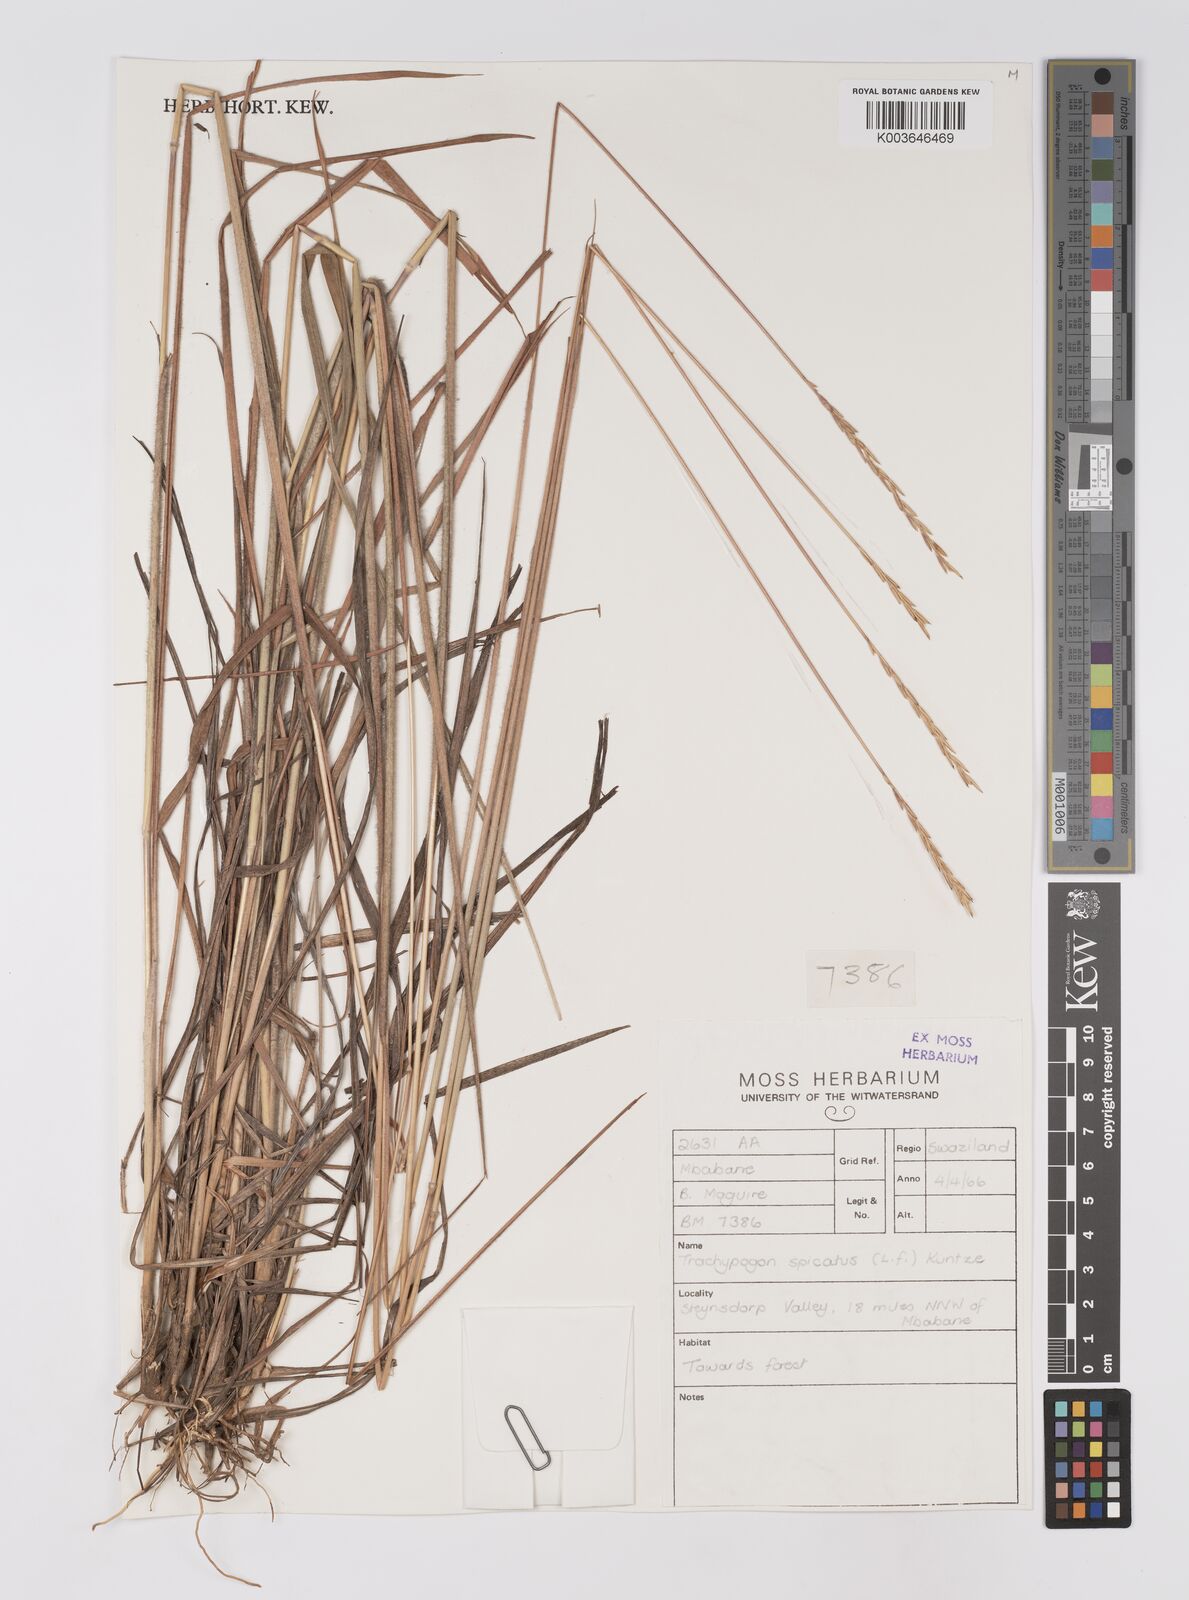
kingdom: Plantae
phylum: Tracheophyta
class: Liliopsida
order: Poales
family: Poaceae
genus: Trachypogon
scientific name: Trachypogon spicatus
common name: Crinkle-awn
